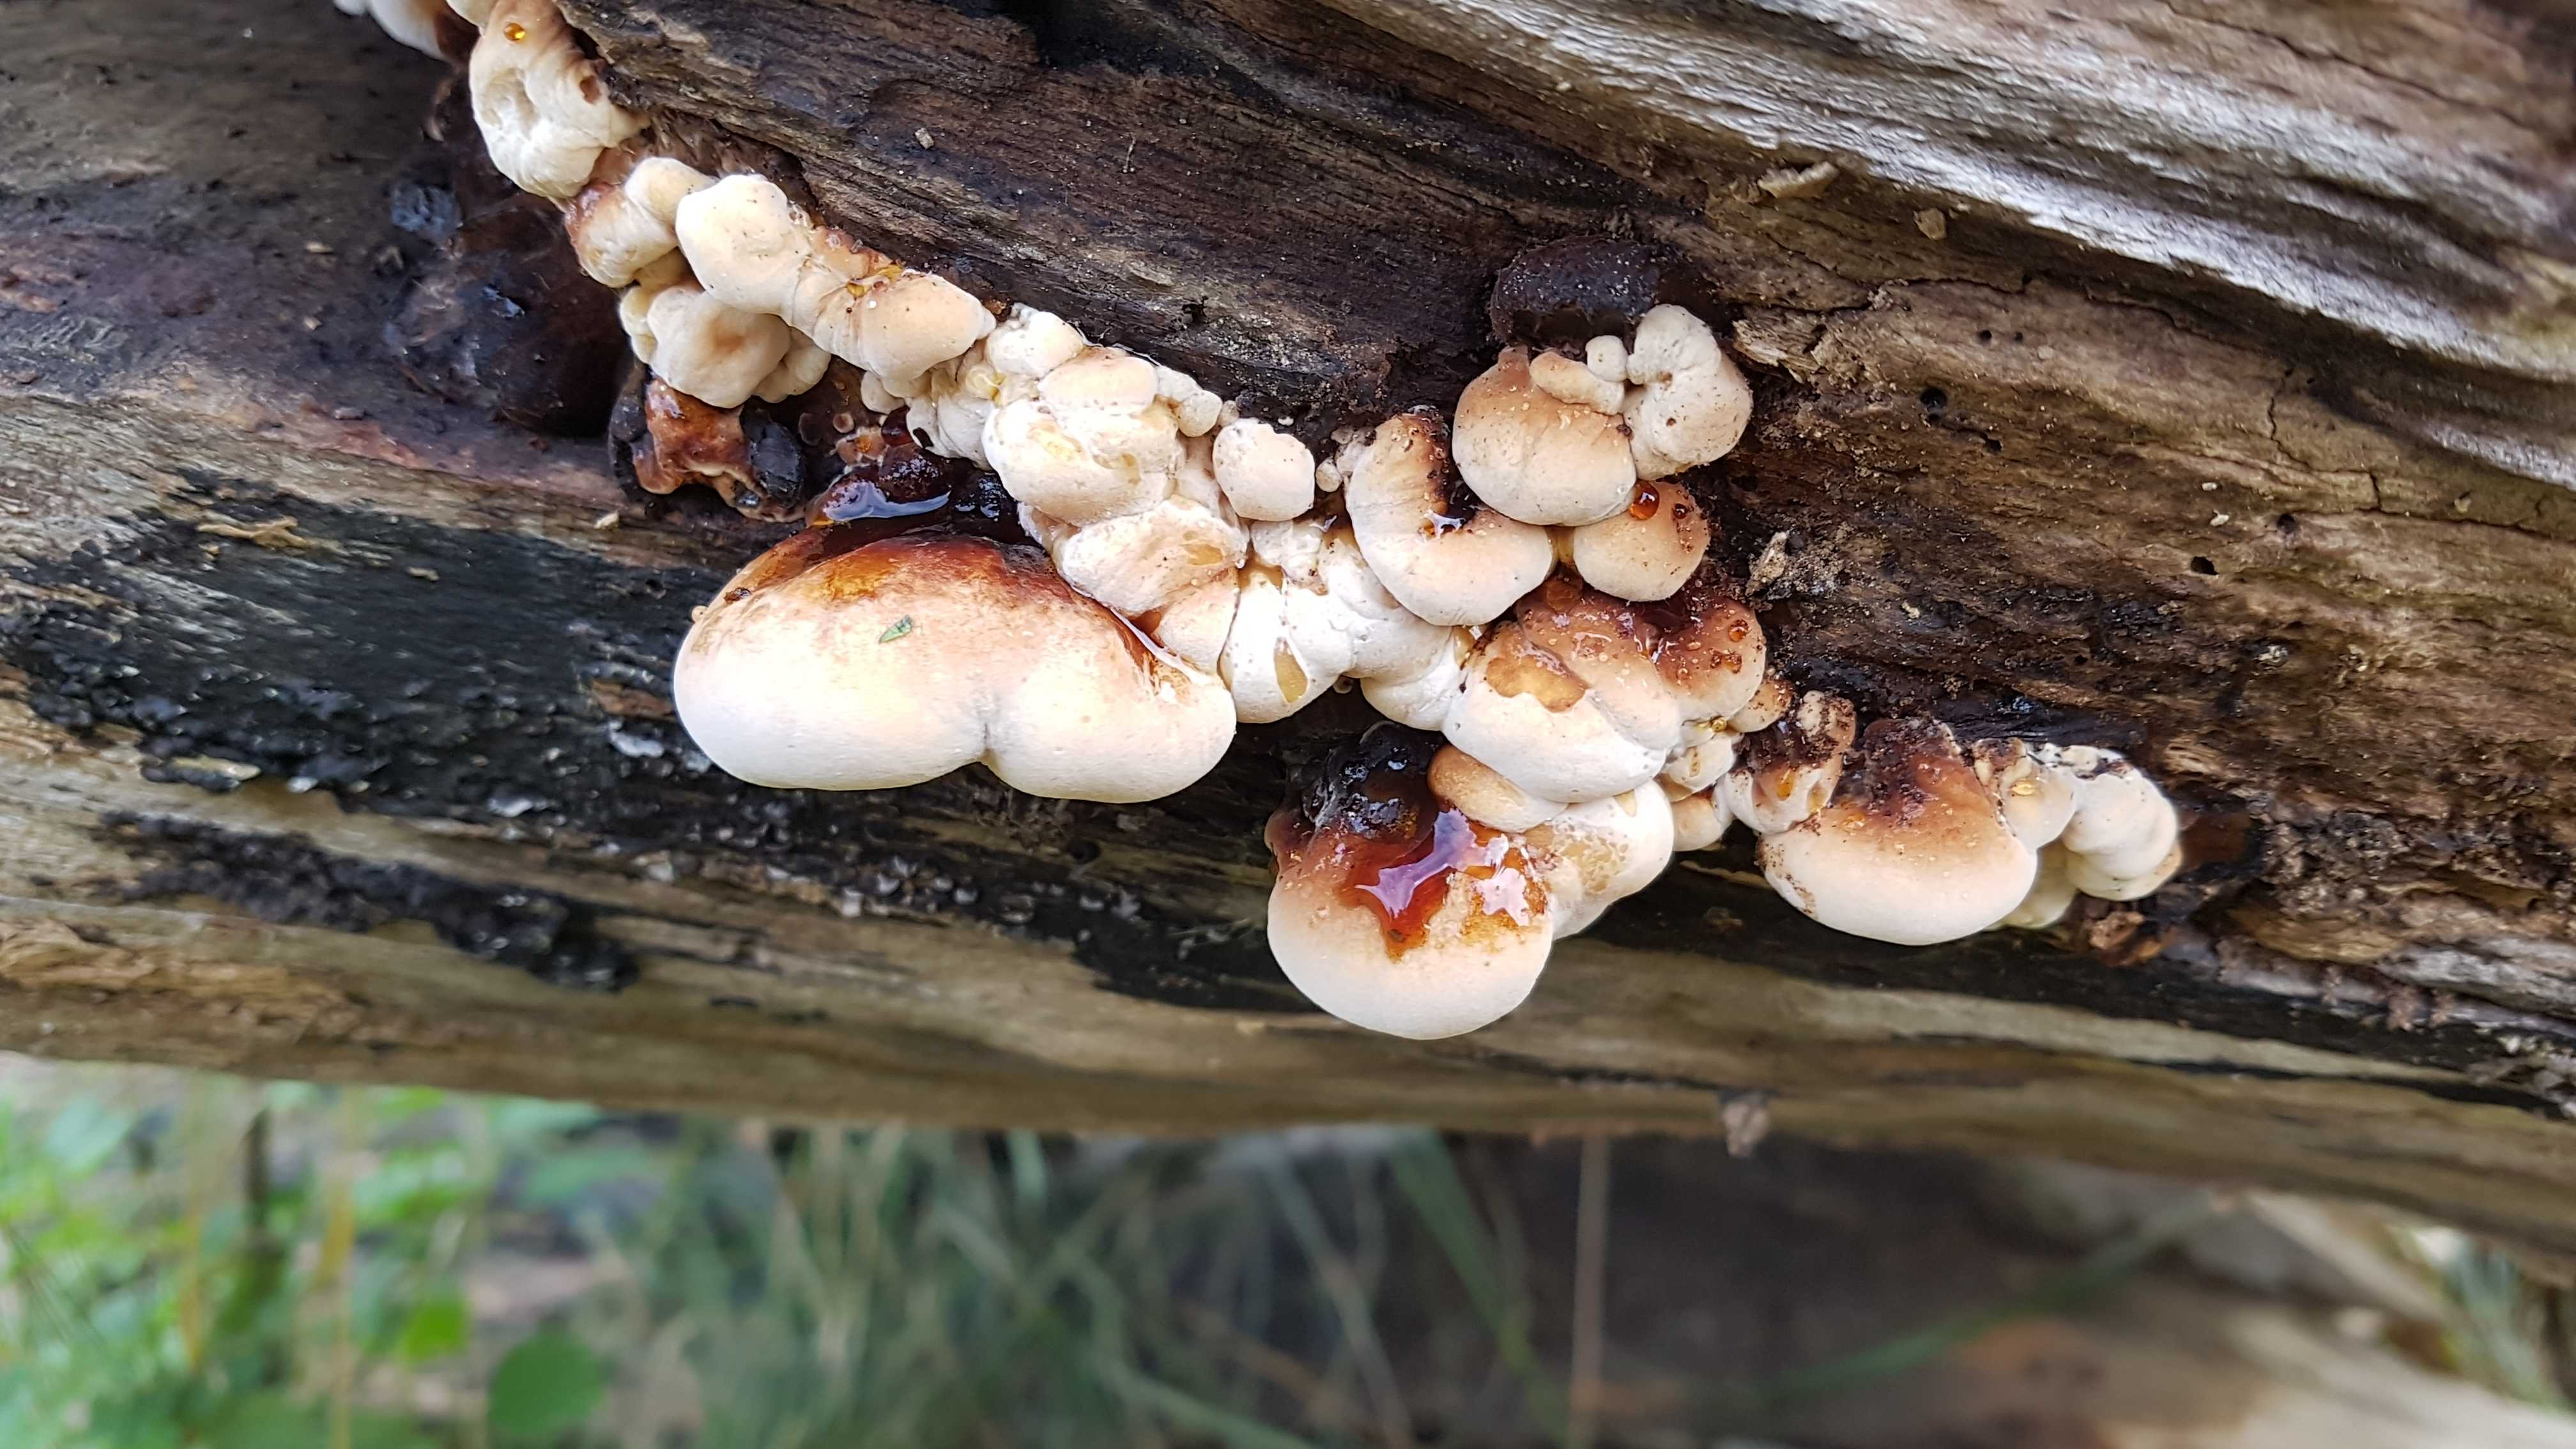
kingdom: Fungi
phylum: Basidiomycota
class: Agaricomycetes
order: Polyporales
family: Ischnodermataceae
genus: Ischnoderma
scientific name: Ischnoderma resinosum
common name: løv-tjæreporesvamp
